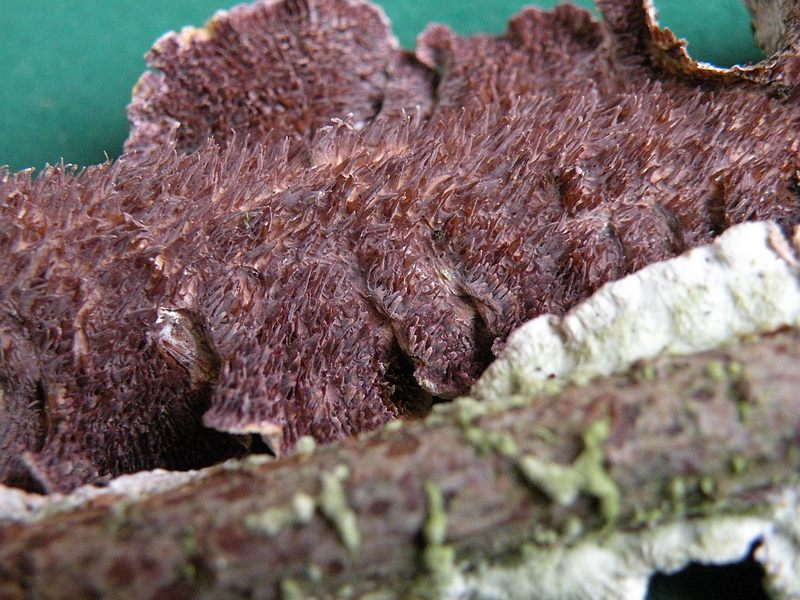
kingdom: Fungi
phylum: Basidiomycota
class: Agaricomycetes
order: Hymenochaetales
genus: Trichaptum
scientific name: Trichaptum fuscoviolaceum
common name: tandet violporesvamp
